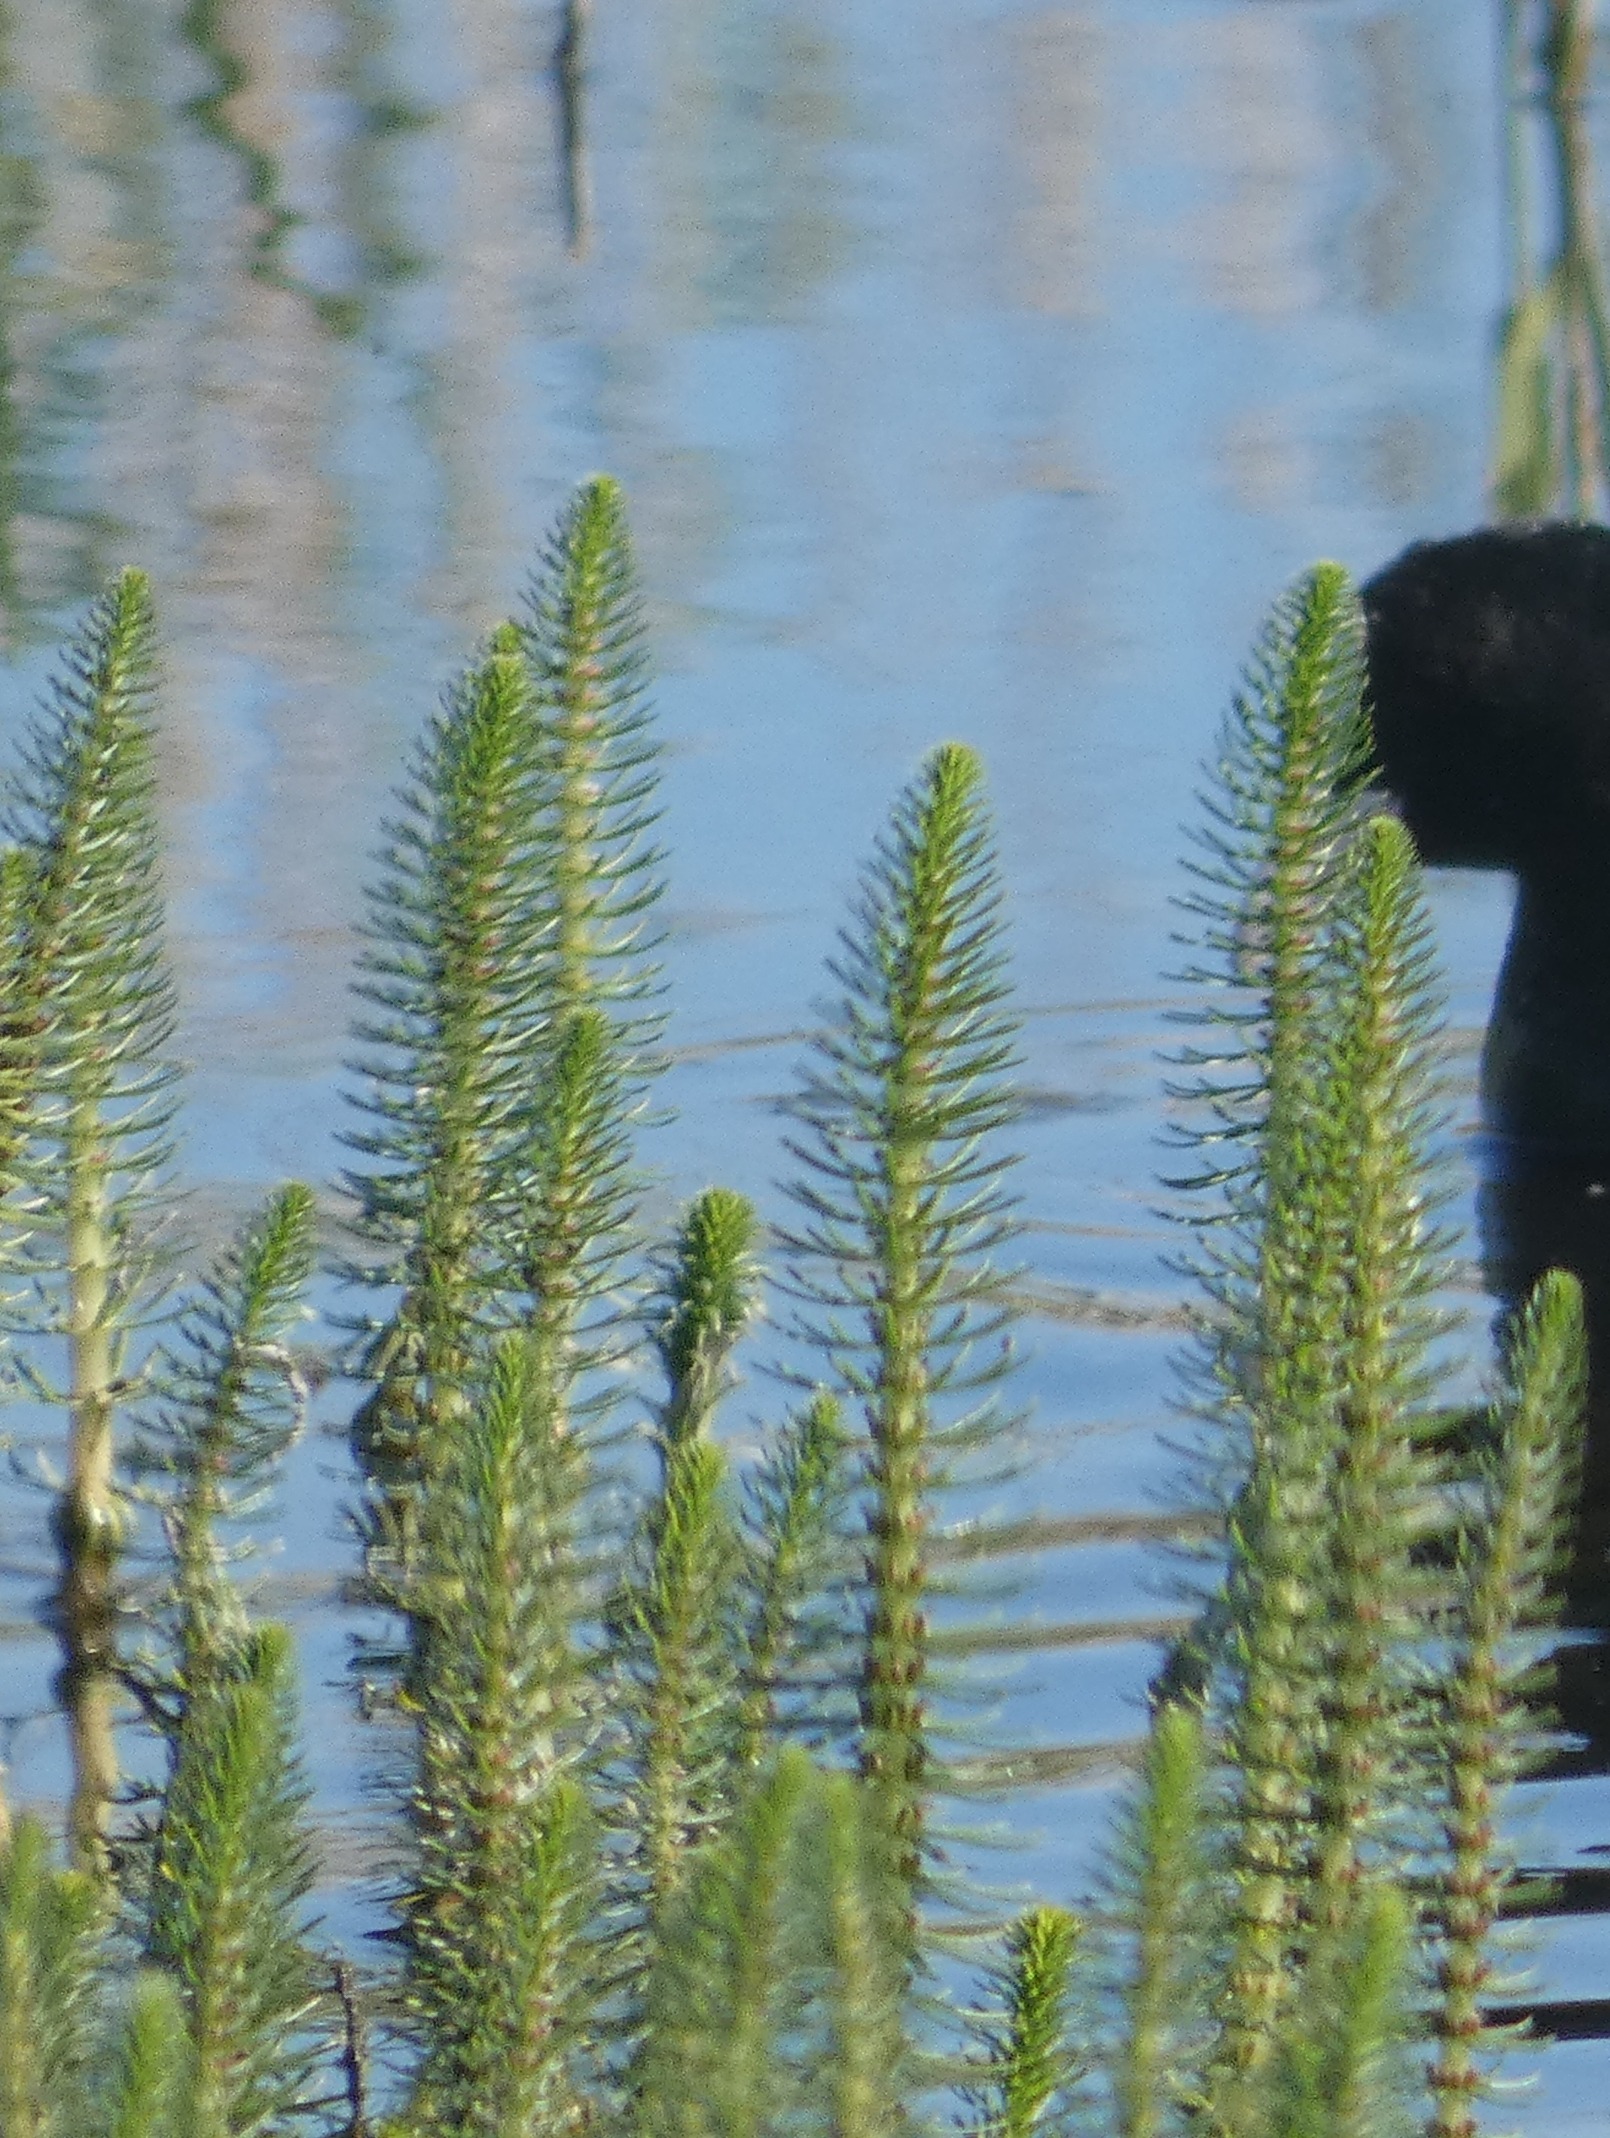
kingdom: Plantae
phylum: Tracheophyta
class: Magnoliopsida
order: Lamiales
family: Plantaginaceae
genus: Hippuris
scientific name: Hippuris vulgaris
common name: Vandspir
